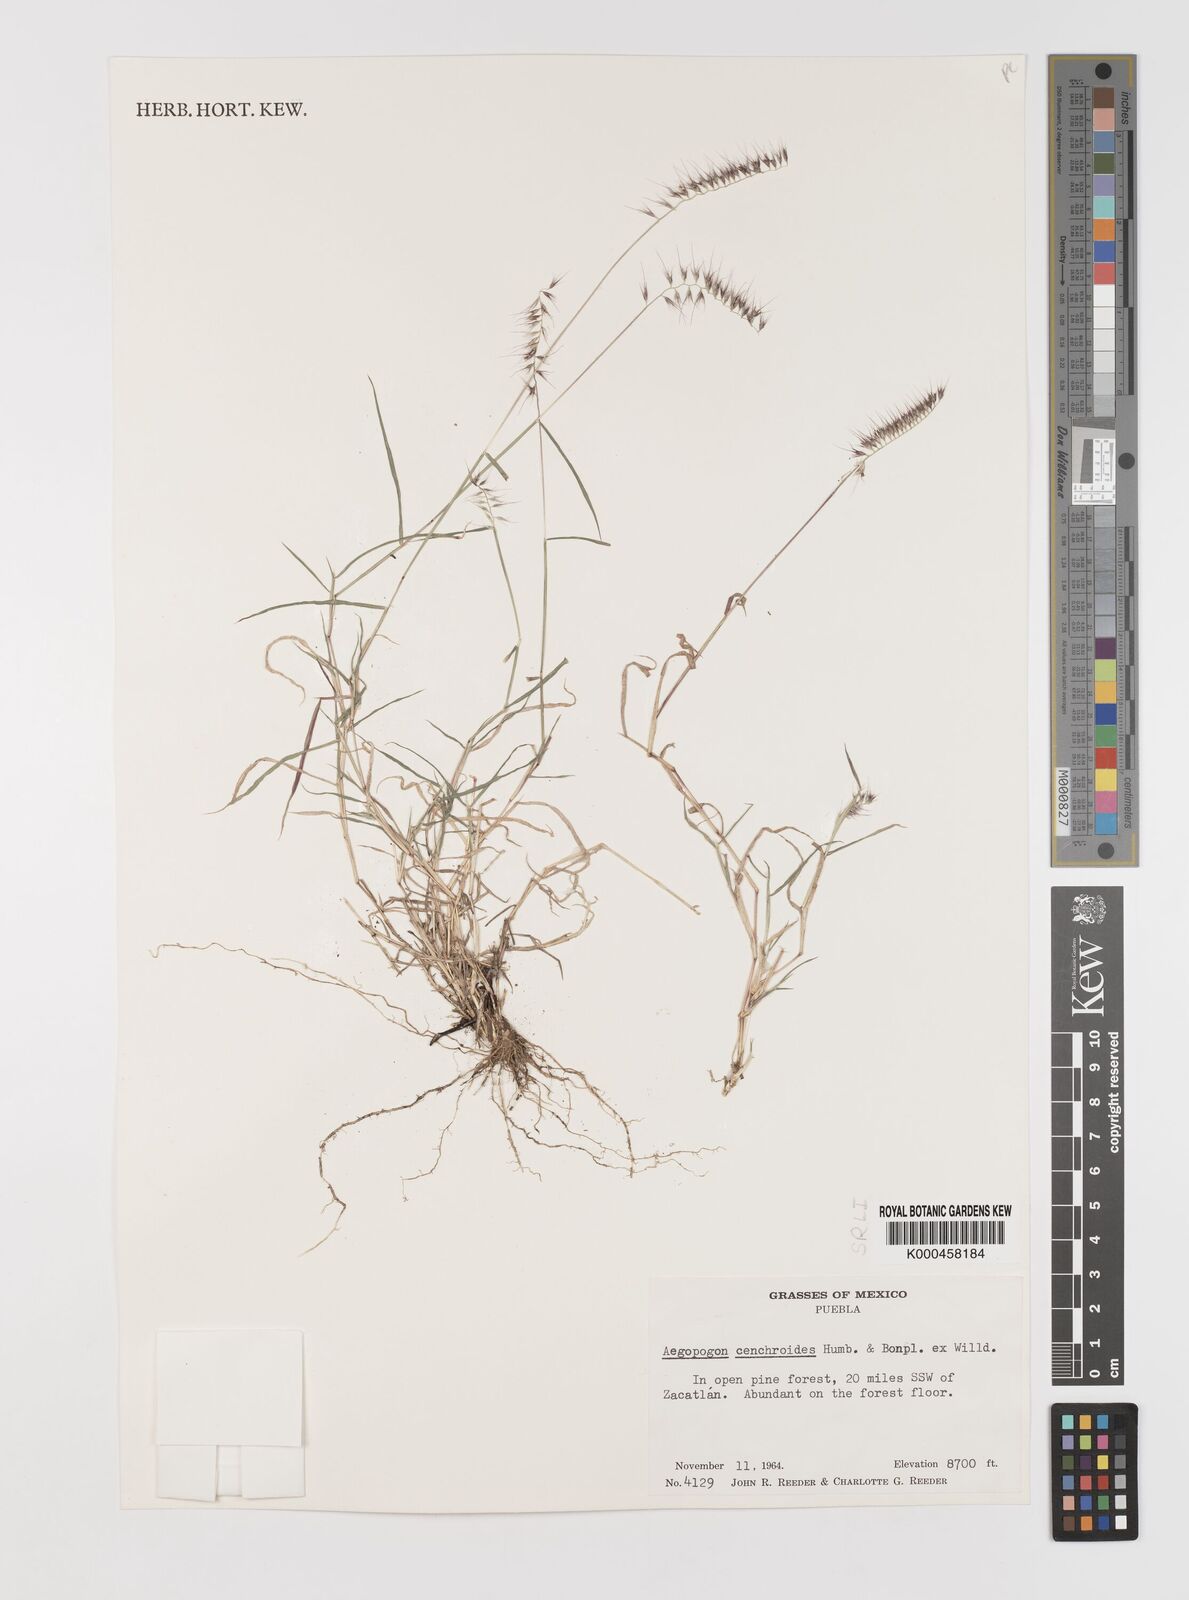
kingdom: Plantae
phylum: Tracheophyta
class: Liliopsida
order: Poales
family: Poaceae
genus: Muhlenbergia
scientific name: Muhlenbergia
